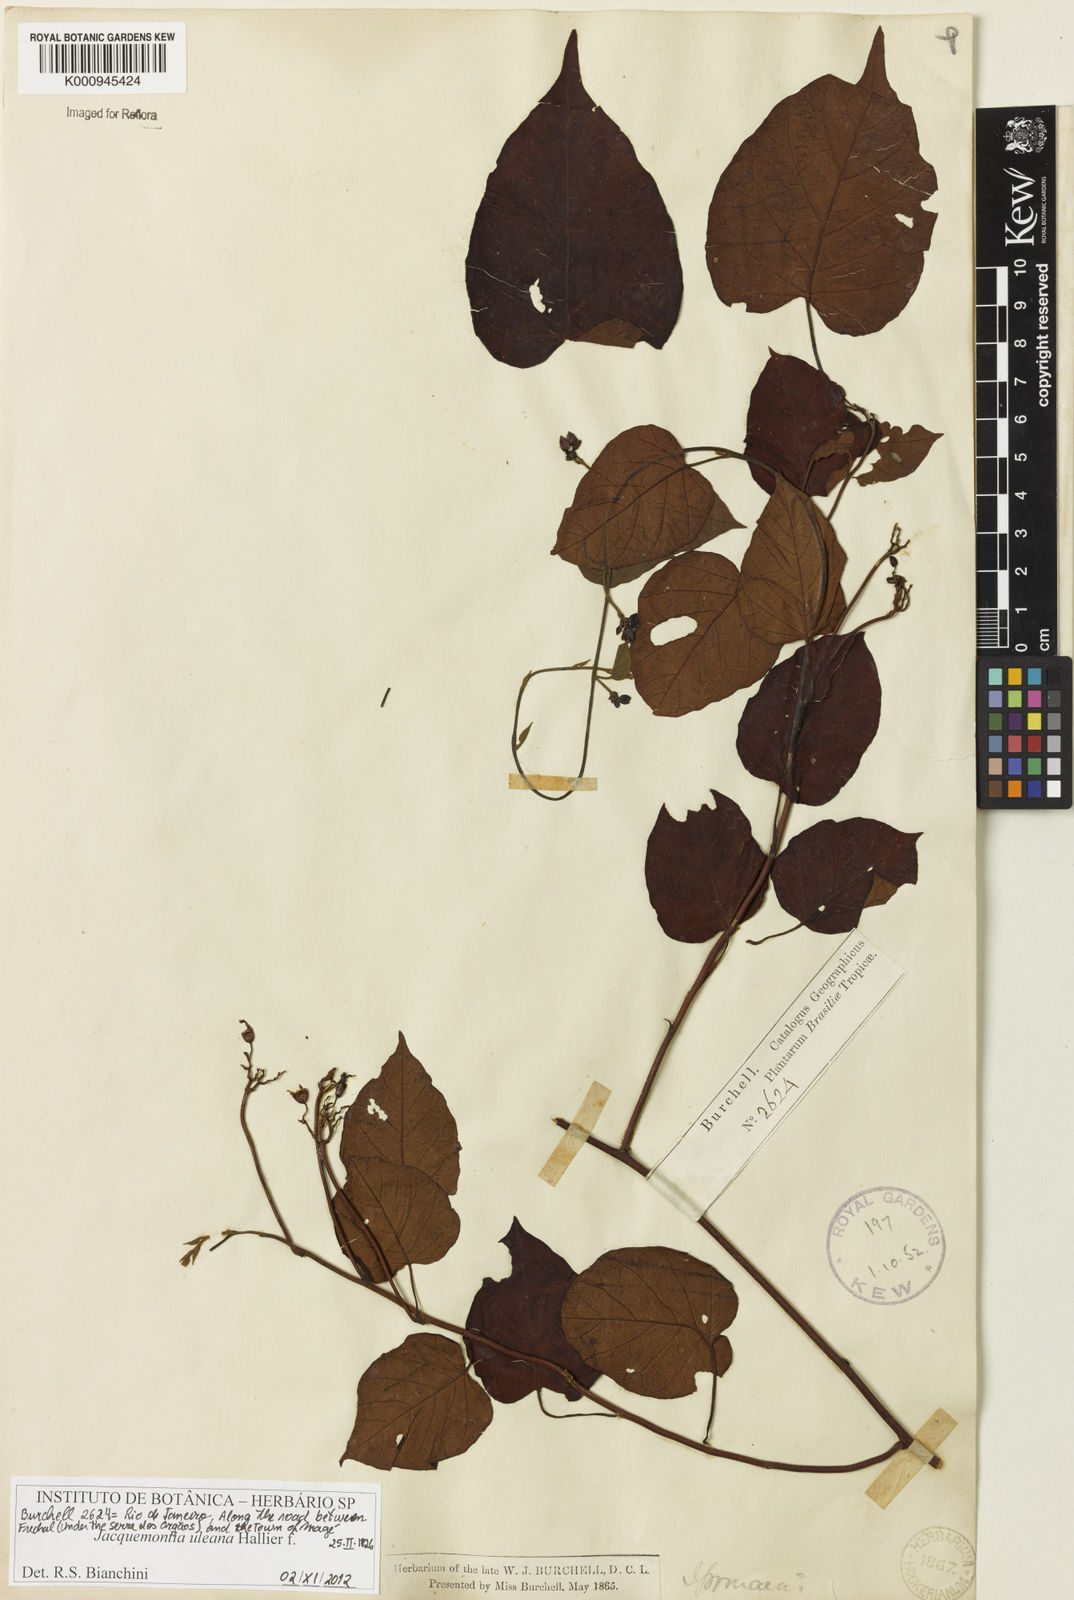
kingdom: Plantae
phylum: Tracheophyta
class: Magnoliopsida
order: Solanales
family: Convolvulaceae
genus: Jacquemontia
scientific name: Jacquemontia frankeana
